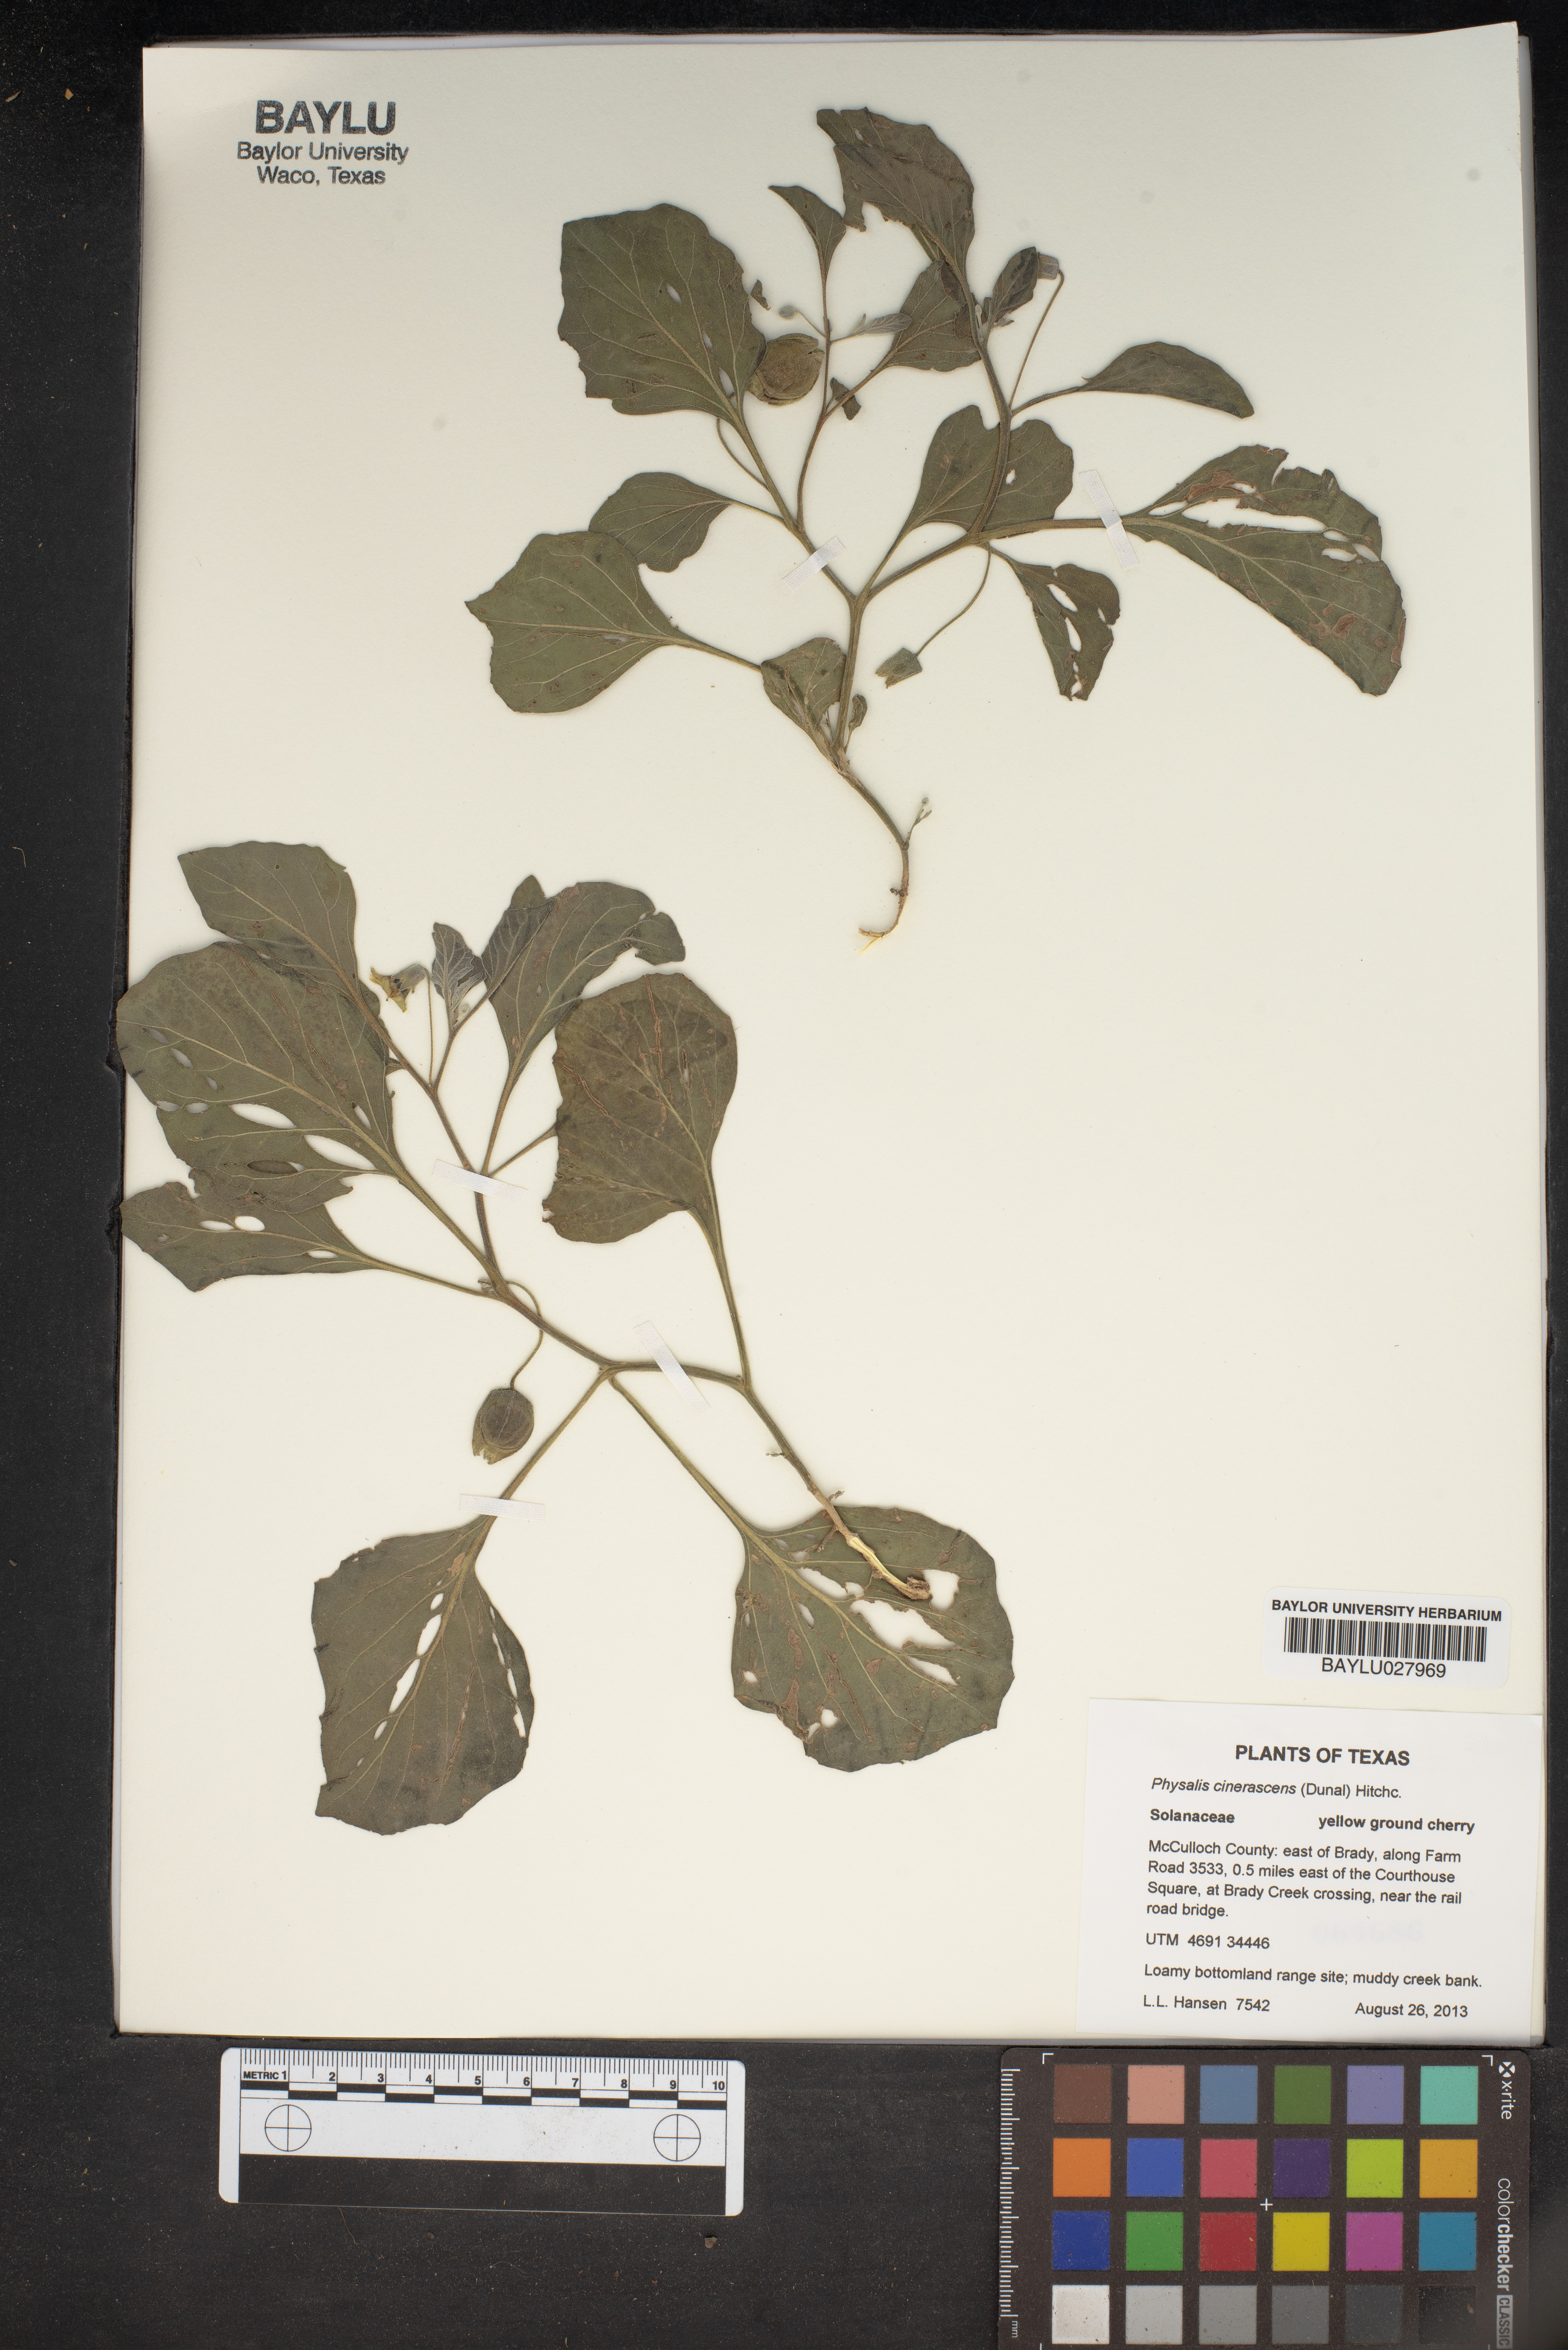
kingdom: Plantae
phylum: Tracheophyta
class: Magnoliopsida
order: Solanales
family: Solanaceae
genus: Physalis
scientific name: Physalis cinerascens
